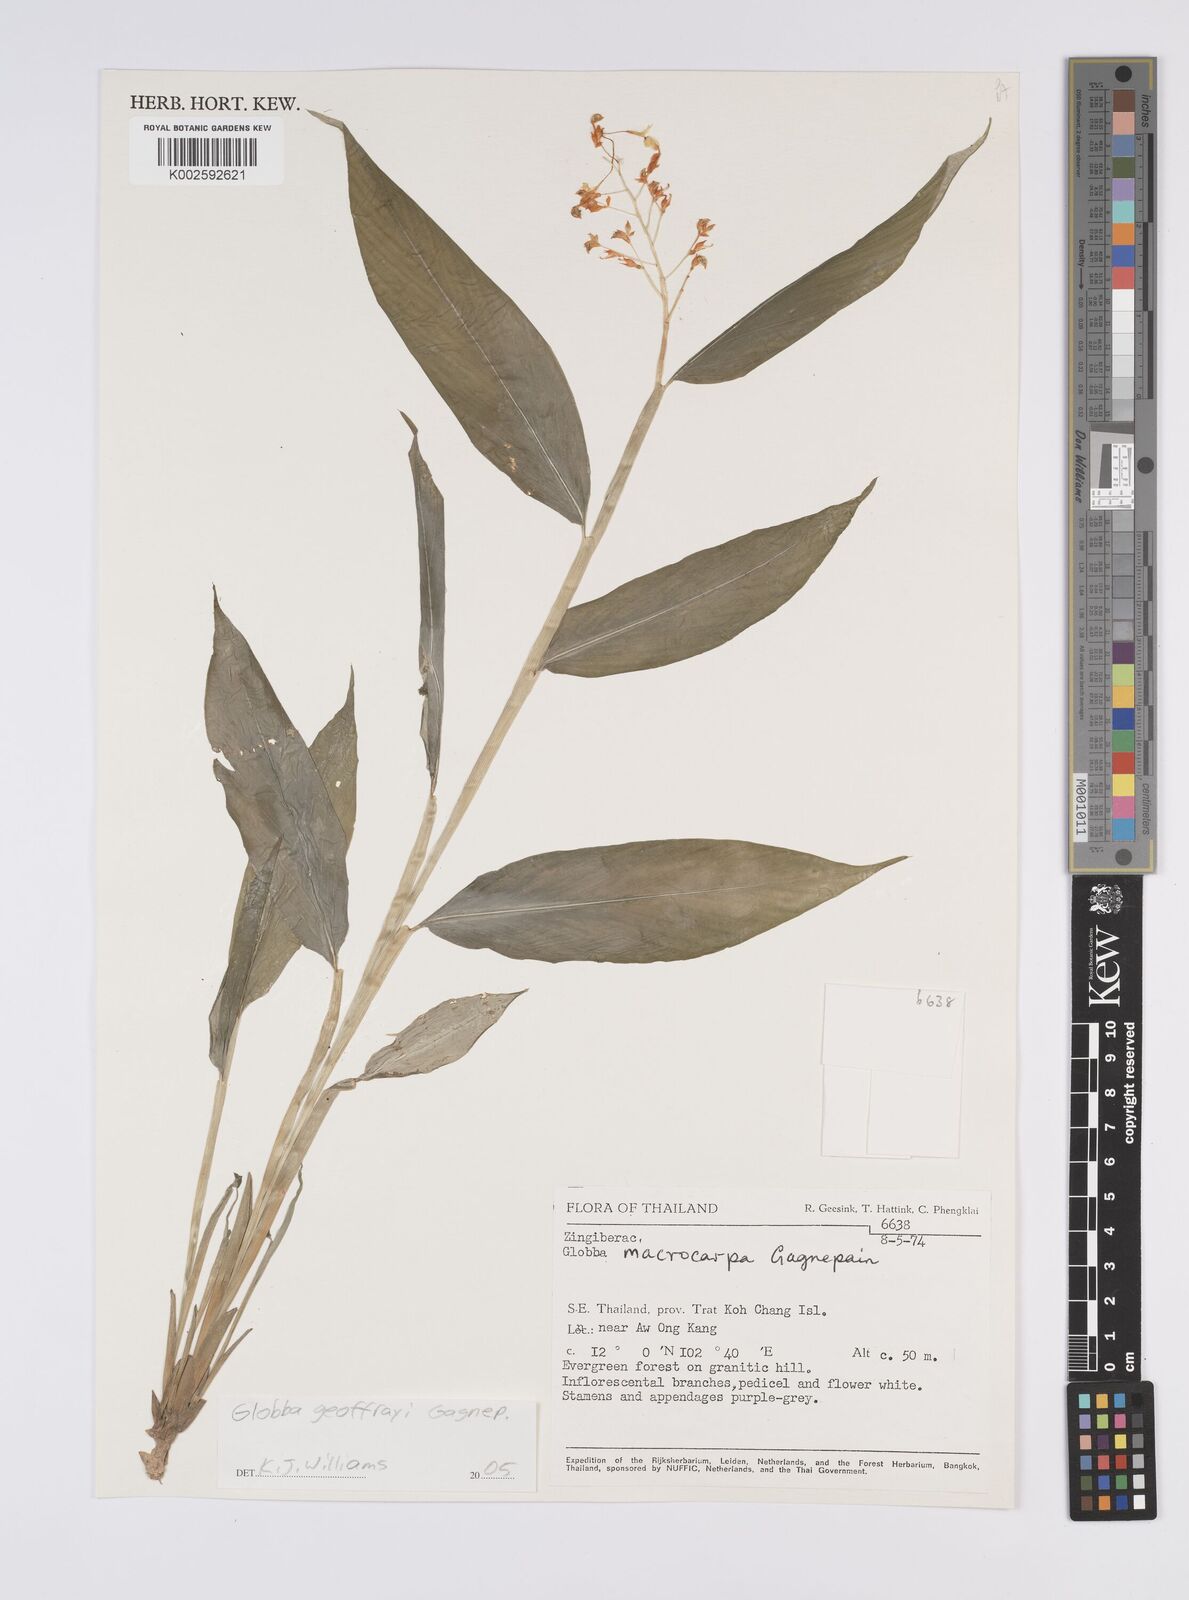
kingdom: Plantae
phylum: Tracheophyta
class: Liliopsida
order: Zingiberales
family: Zingiberaceae
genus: Globba
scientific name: Globba geoffrayi
